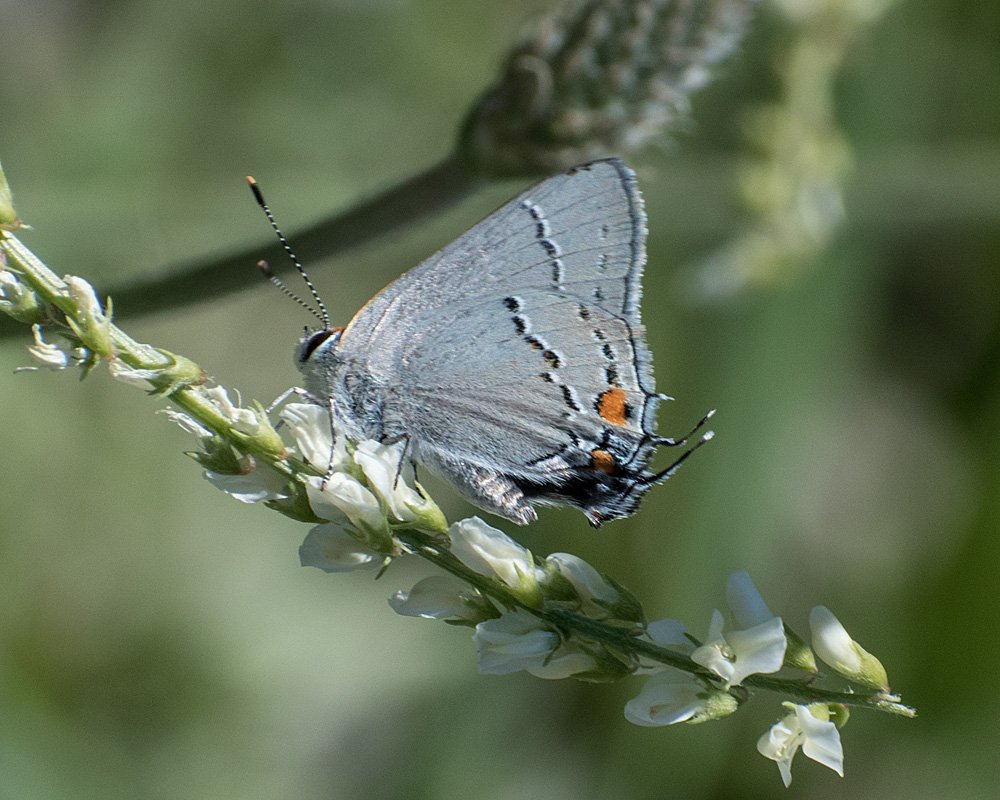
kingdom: Animalia
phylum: Arthropoda
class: Insecta
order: Lepidoptera
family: Lycaenidae
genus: Strymon
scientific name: Strymon melinus
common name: Gray Hairstreak
